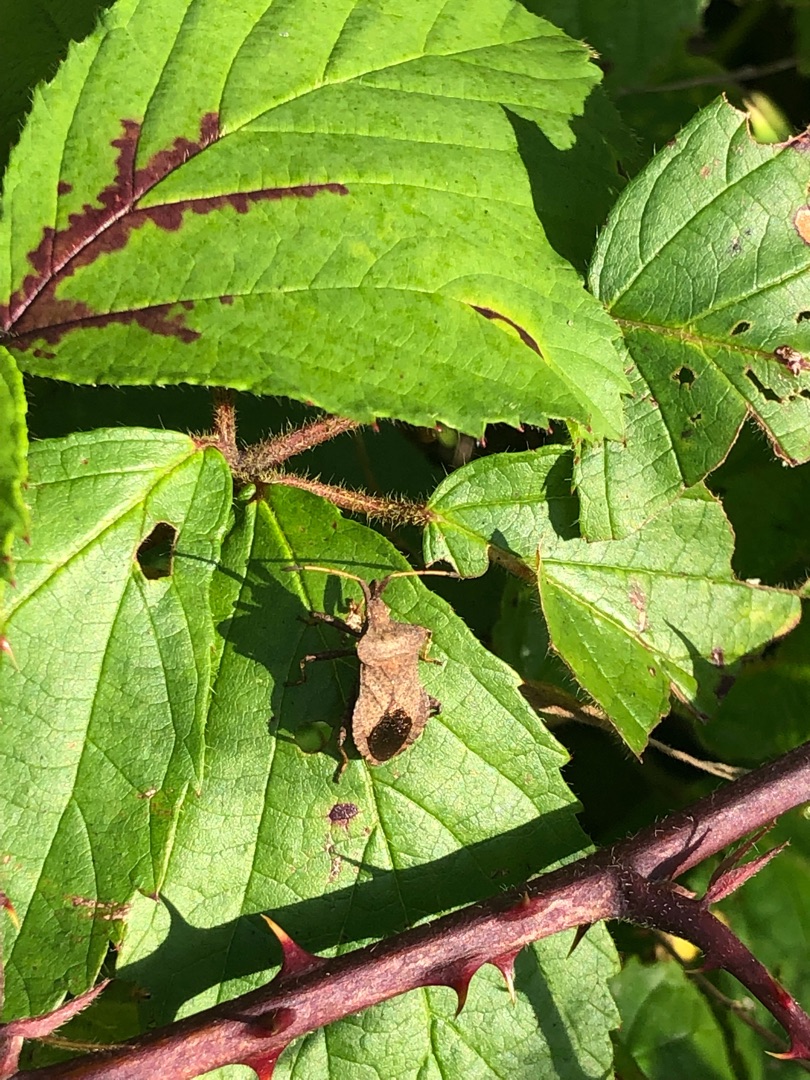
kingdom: Animalia
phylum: Arthropoda
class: Insecta
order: Hemiptera
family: Coreidae
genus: Coreus
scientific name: Coreus marginatus
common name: Skræppetæge
